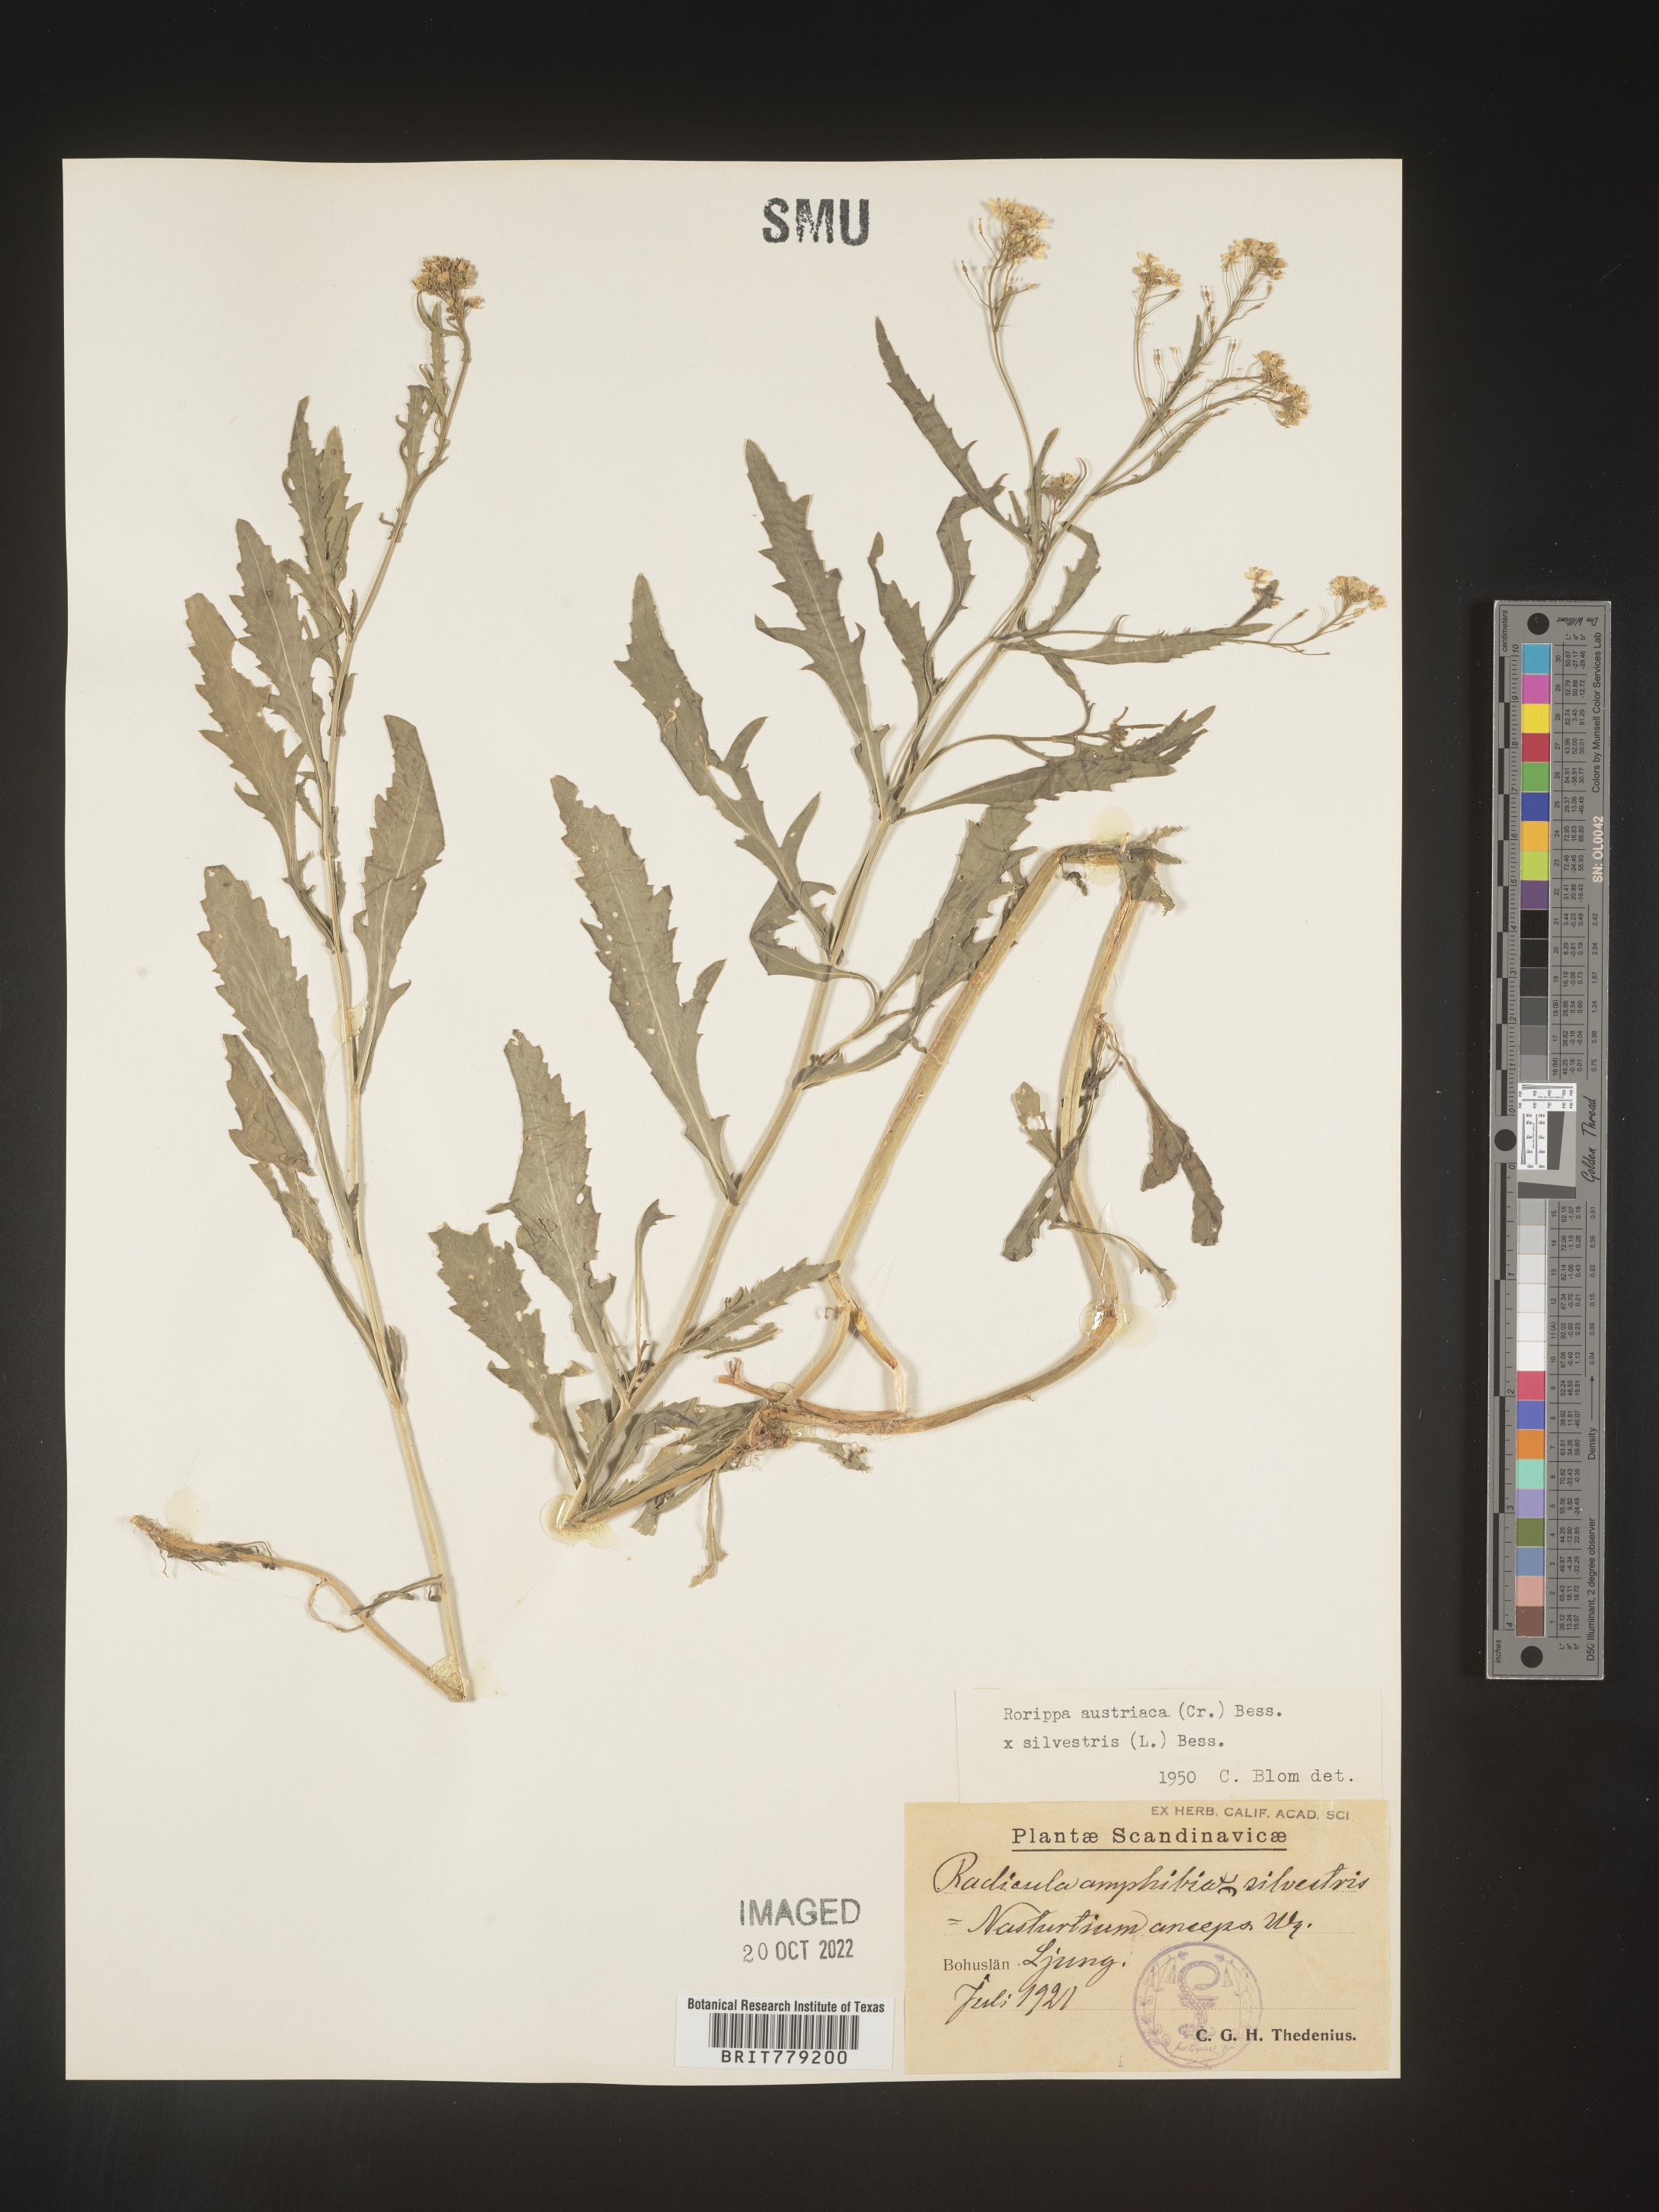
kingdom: Plantae
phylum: Tracheophyta
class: Magnoliopsida
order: Brassicales
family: Brassicaceae
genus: Rorippa
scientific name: Rorippa
